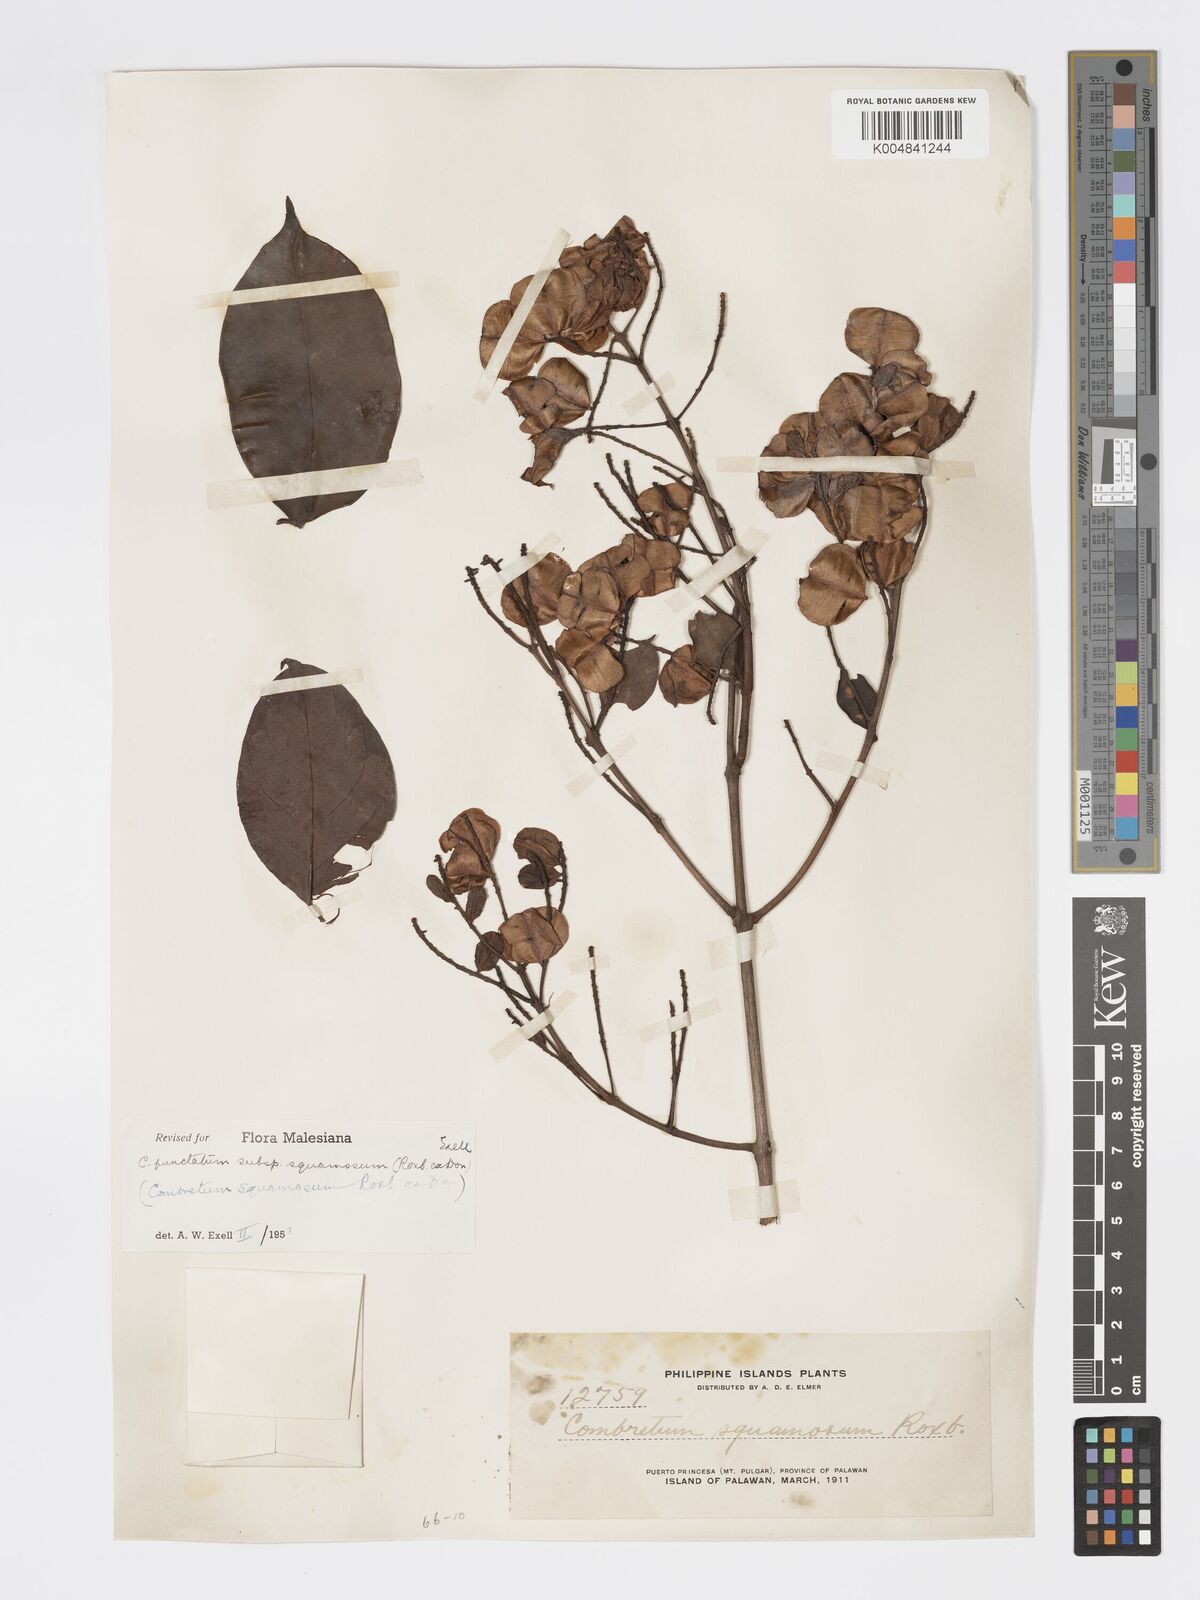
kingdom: Plantae
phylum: Tracheophyta
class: Magnoliopsida
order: Myrtales
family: Combretaceae
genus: Combretum
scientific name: Combretum
